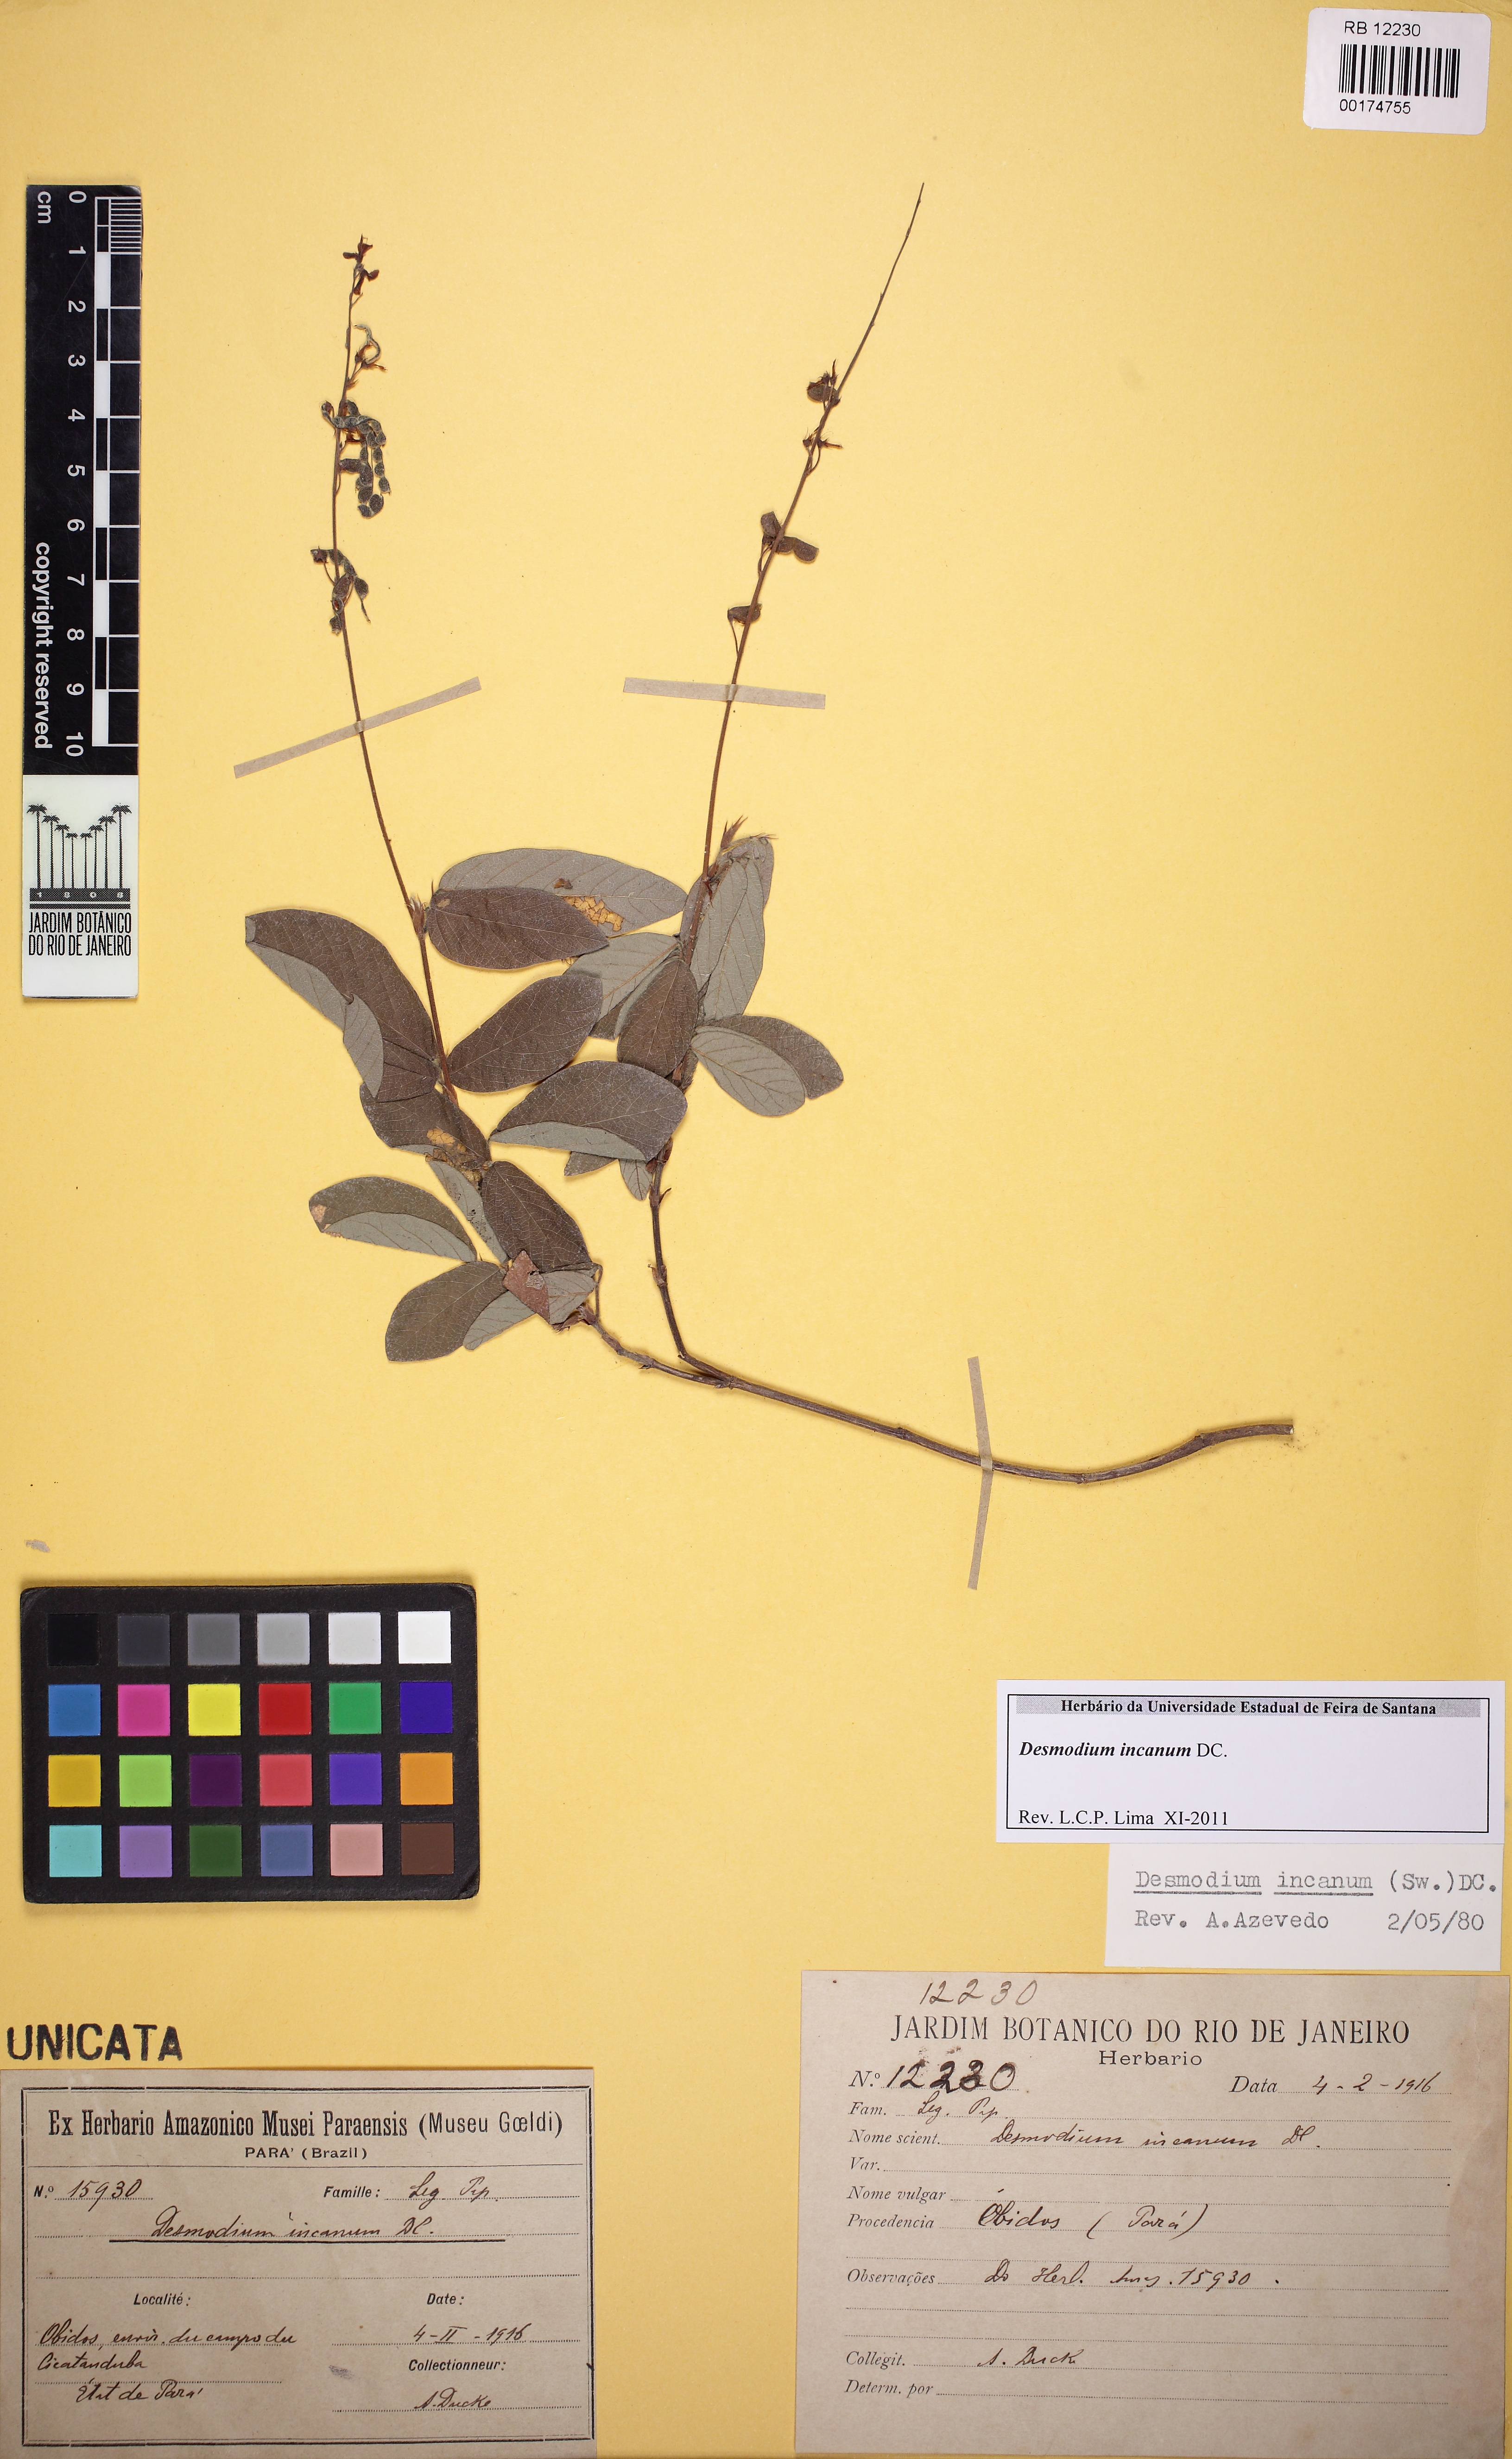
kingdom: Plantae
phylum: Tracheophyta
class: Magnoliopsida
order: Fabales
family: Fabaceae
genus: Desmodium
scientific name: Desmodium incanum
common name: Tickclover
